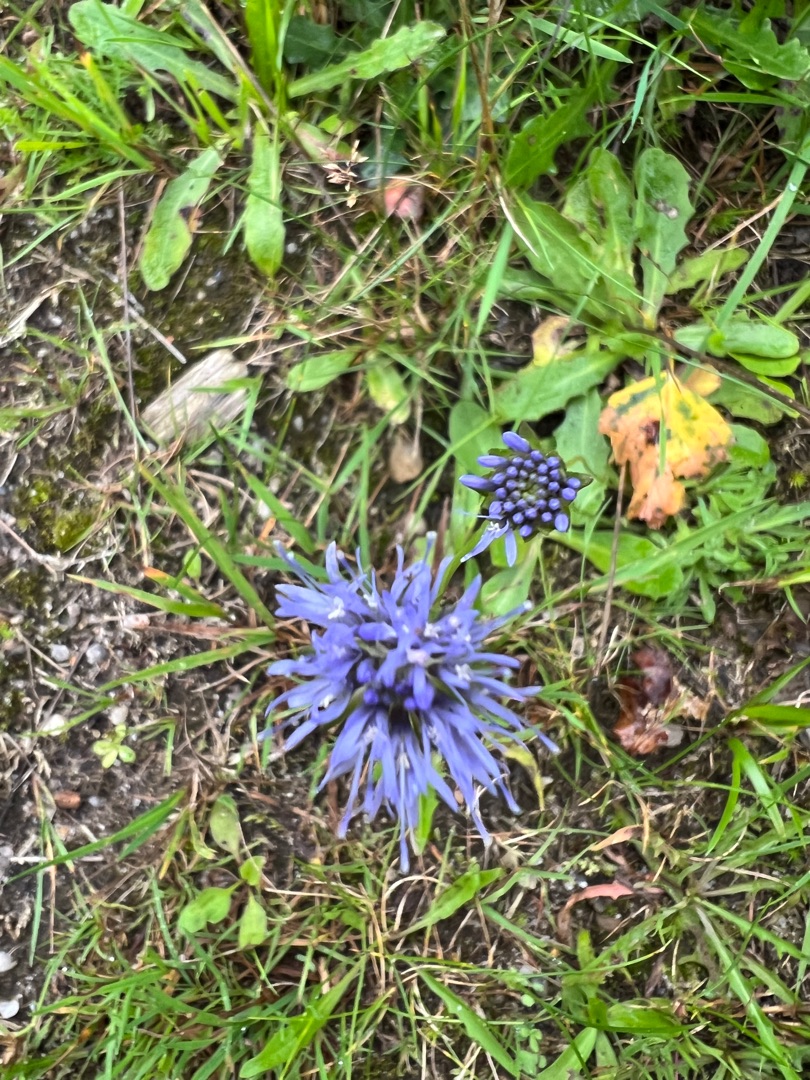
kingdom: Plantae
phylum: Tracheophyta
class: Magnoliopsida
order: Asterales
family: Campanulaceae
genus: Jasione
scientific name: Jasione montana
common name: Blåmunke
